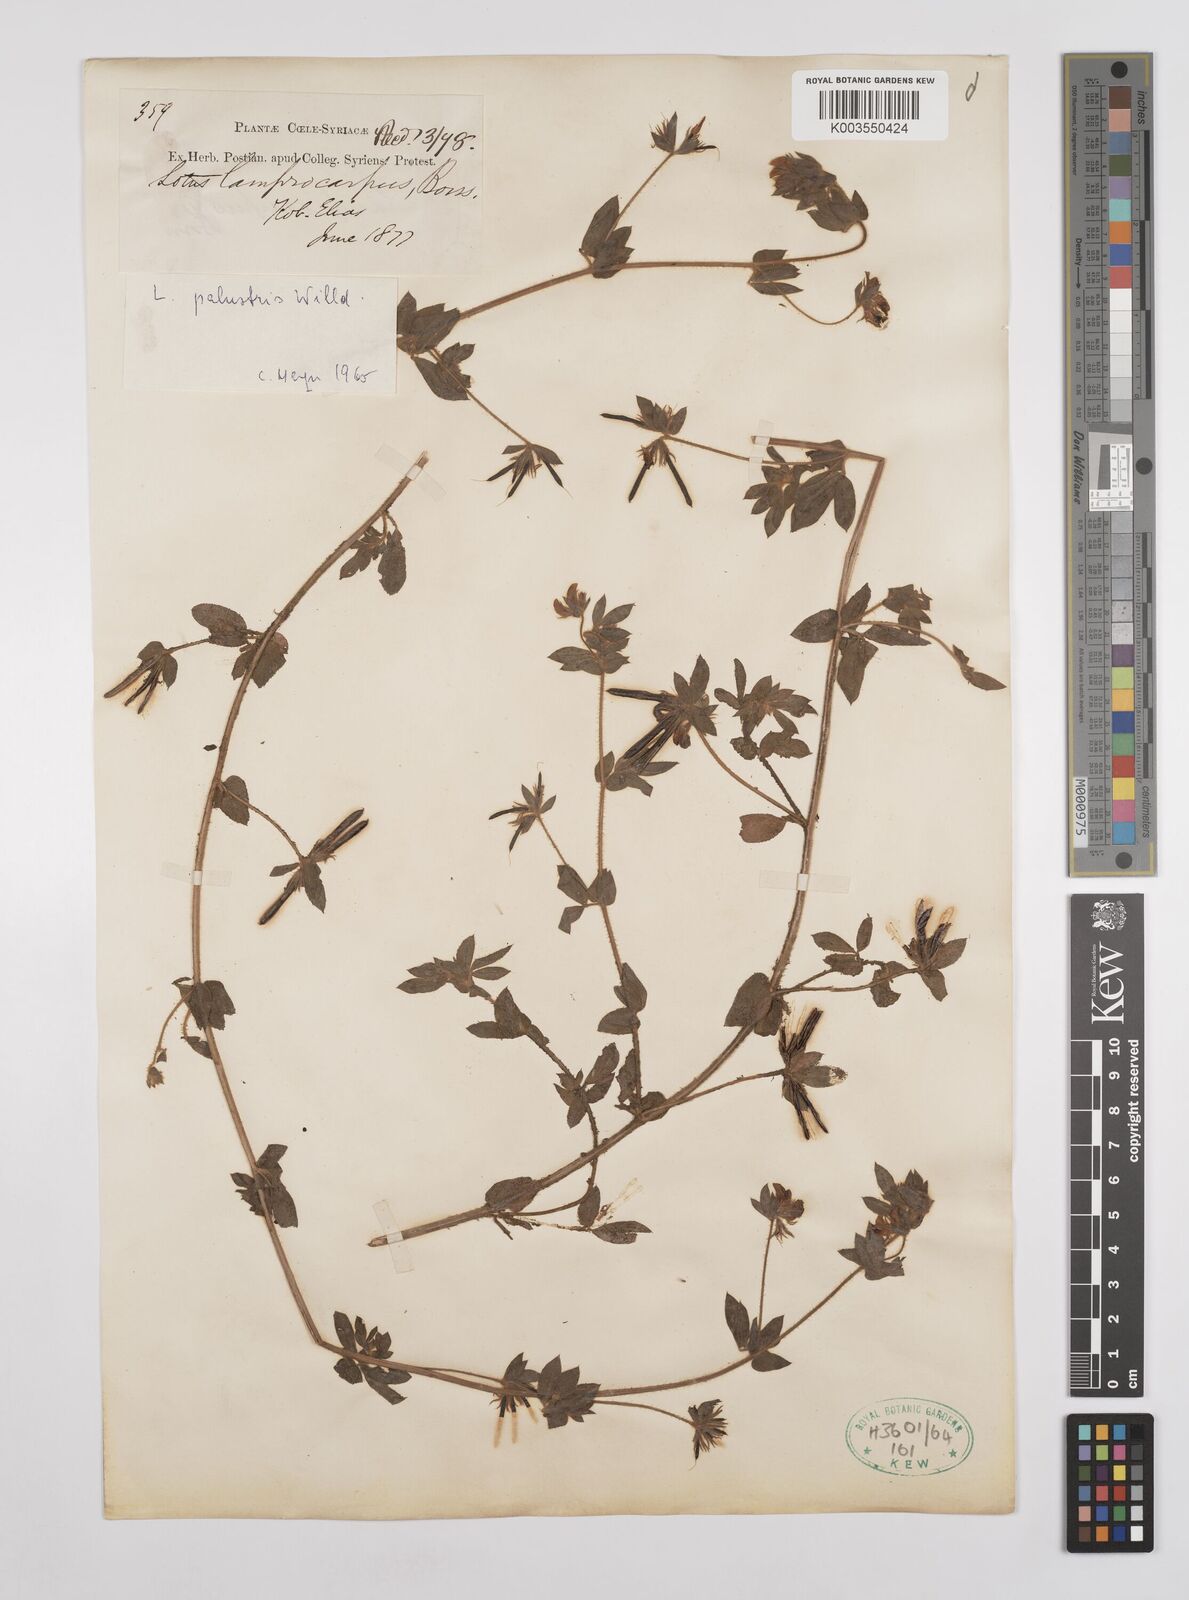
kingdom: Plantae
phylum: Tracheophyta
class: Magnoliopsida
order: Fabales
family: Fabaceae
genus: Lotus
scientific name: Lotus palustris
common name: Large birds-foot trefoil
